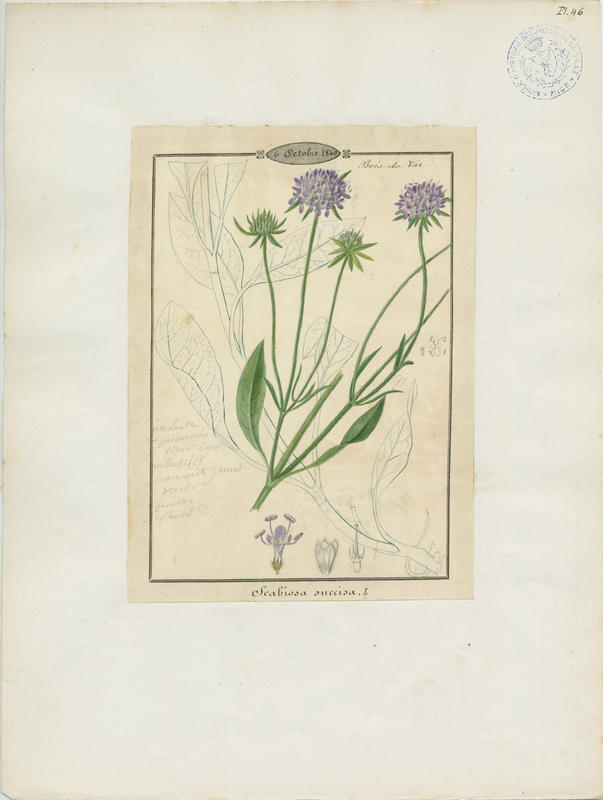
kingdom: Plantae
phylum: Tracheophyta
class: Magnoliopsida
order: Dipsacales
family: Caprifoliaceae
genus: Succisa
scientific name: Succisa pratensis
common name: Devil's-bit
